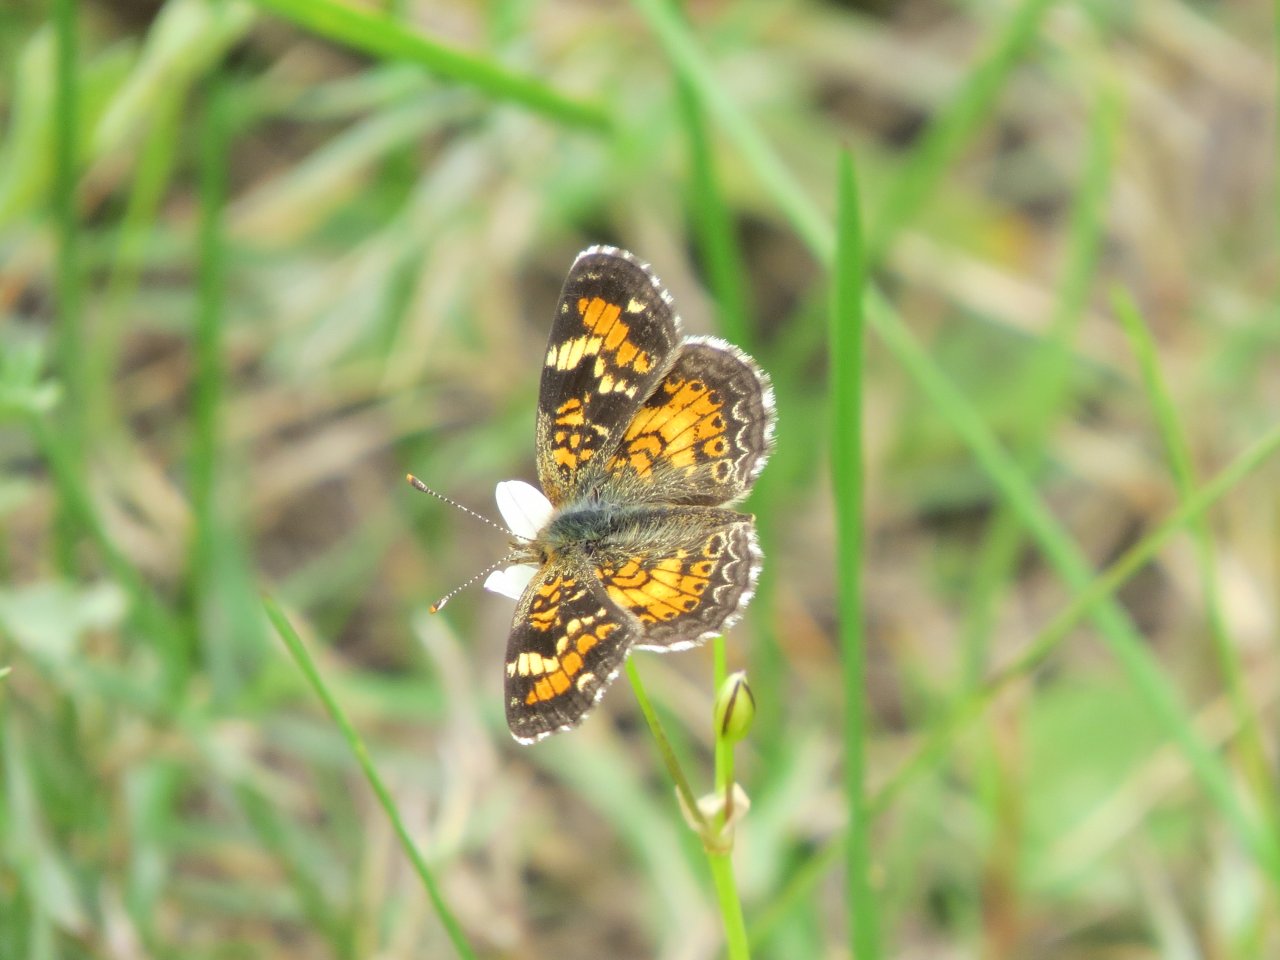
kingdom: Animalia
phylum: Arthropoda
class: Insecta
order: Lepidoptera
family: Nymphalidae
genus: Phyciodes
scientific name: Phyciodes phaon
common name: Phaon Crescent
